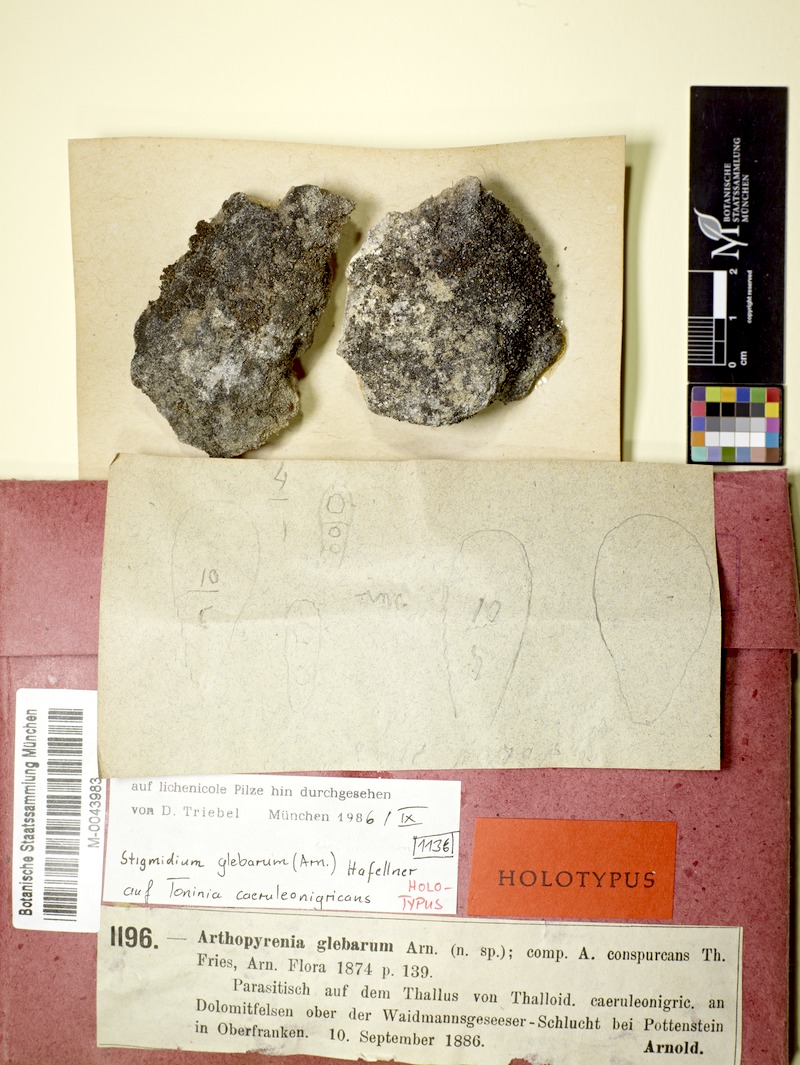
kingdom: Fungi
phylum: Ascomycota
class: Dothideomycetes
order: Mycosphaerellales
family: Mycosphaerellaceae
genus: Stigmidium
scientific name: Stigmidium tabacinae
